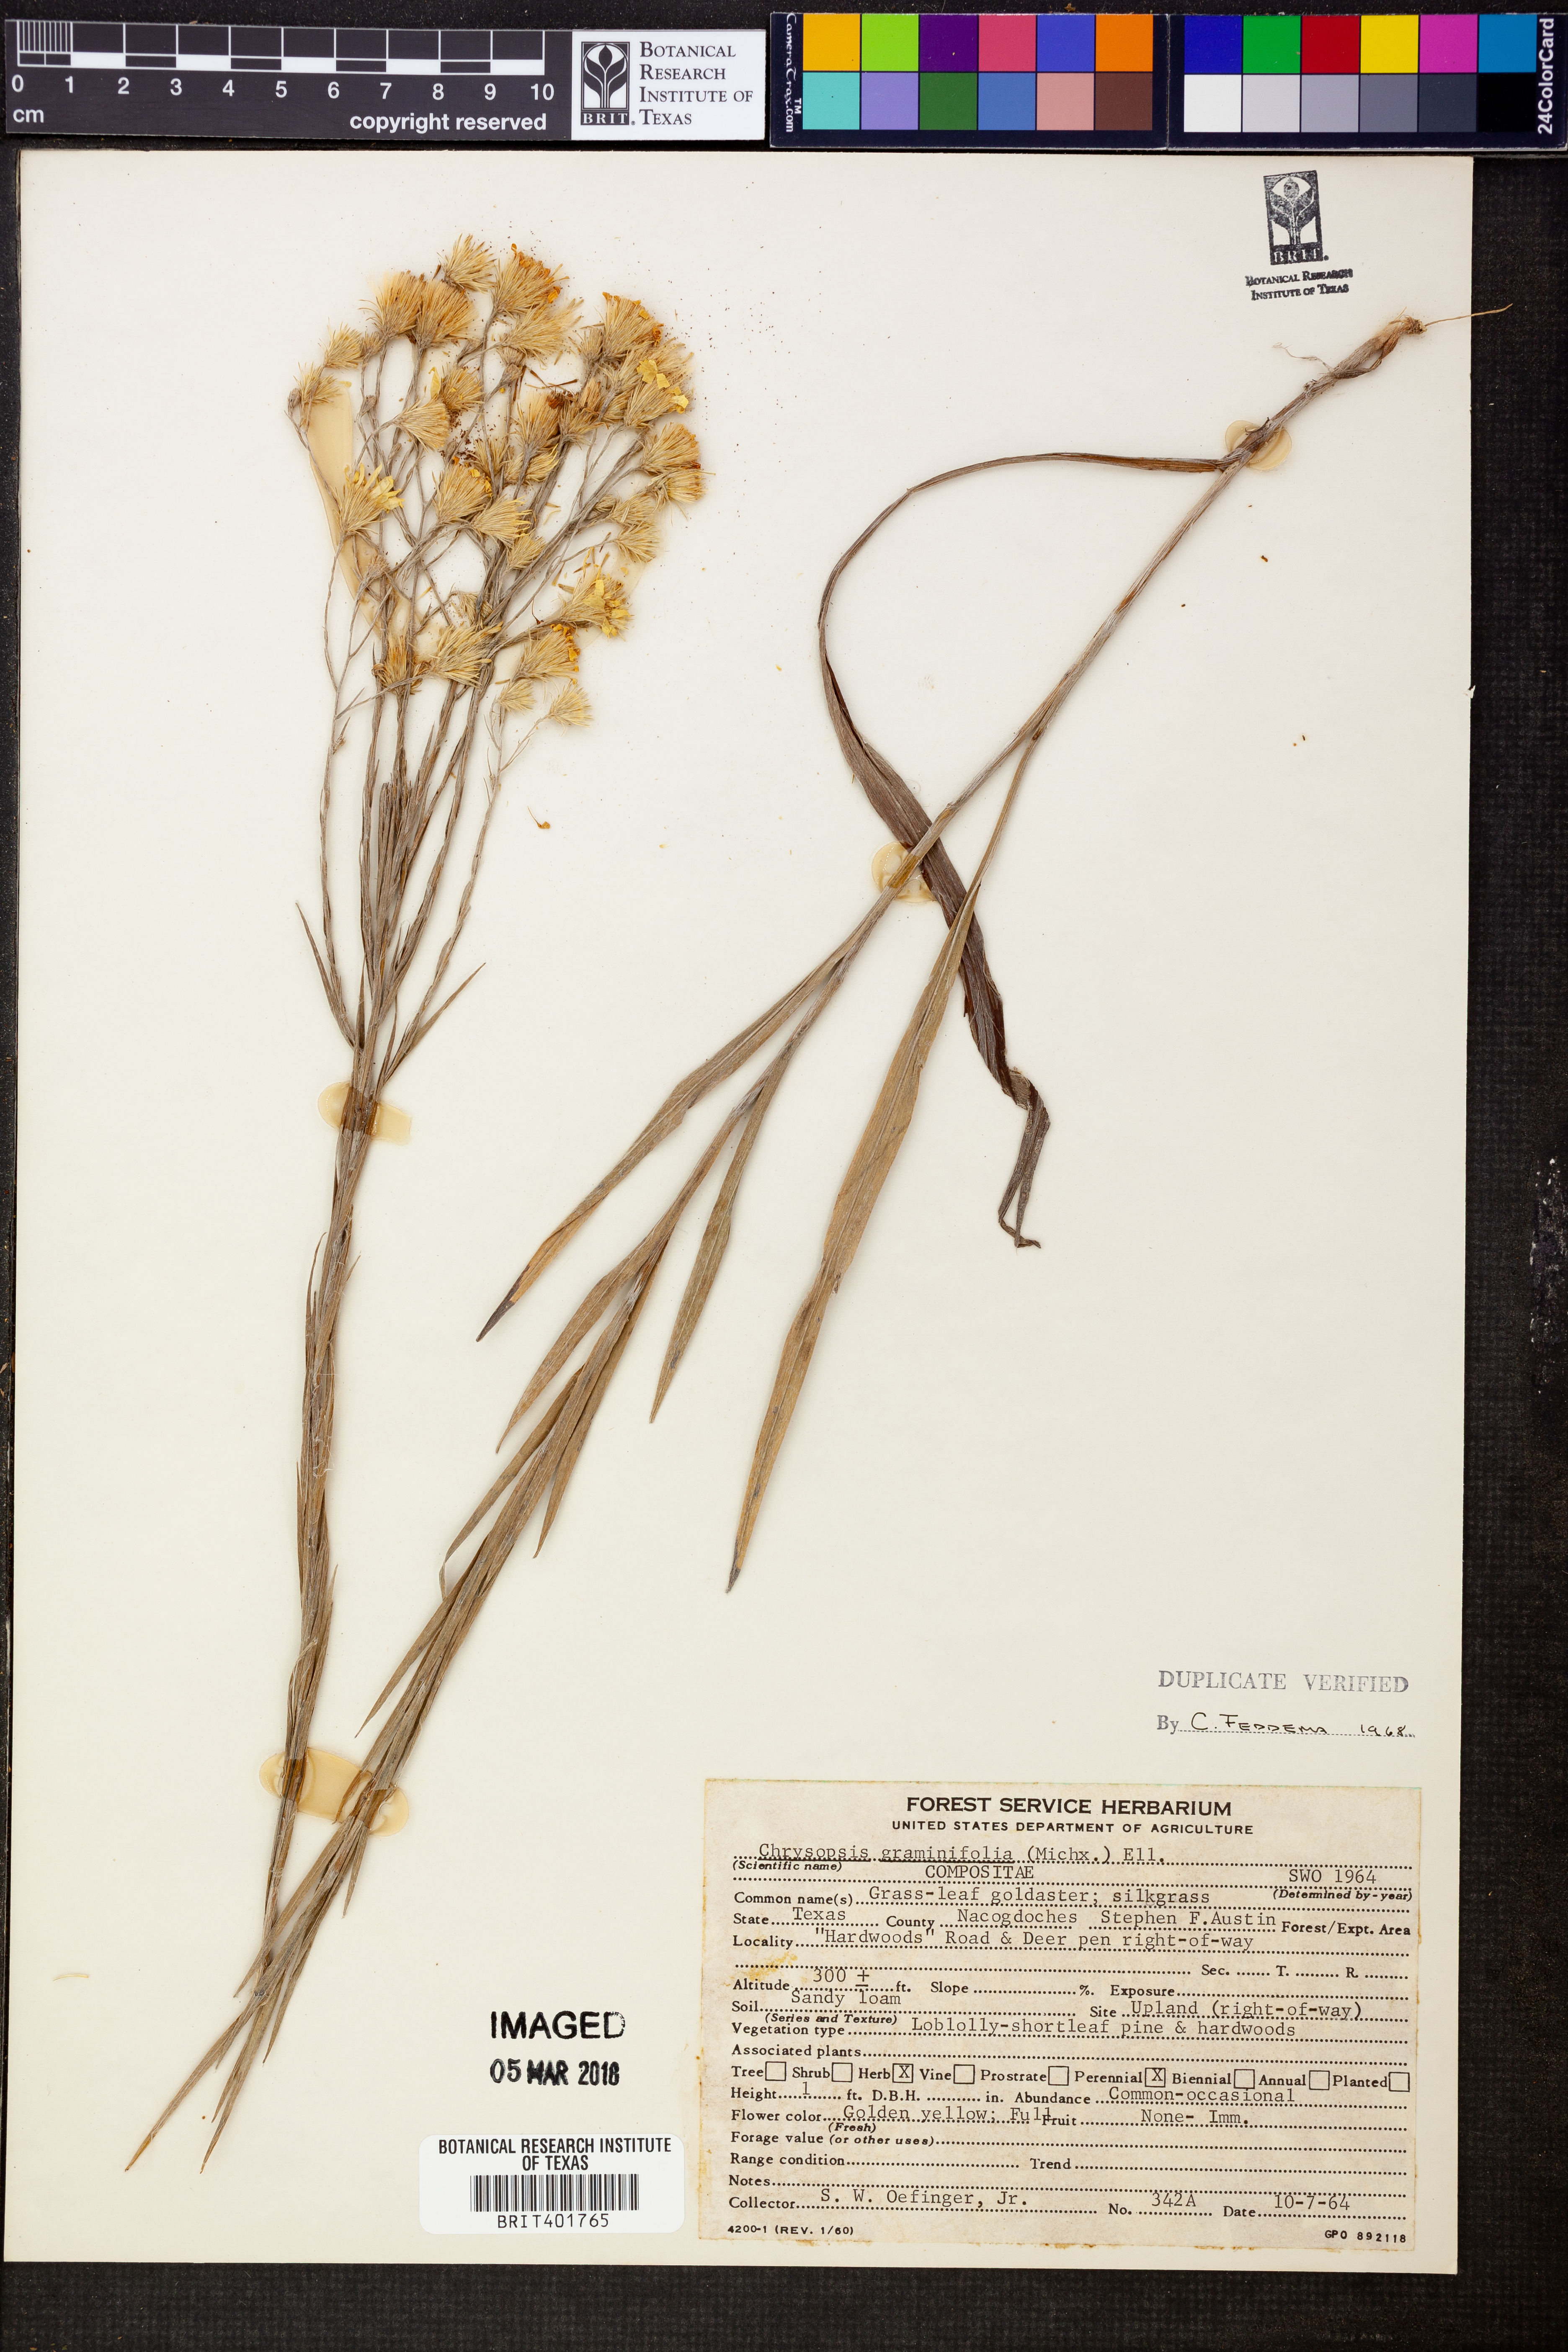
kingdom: Plantae
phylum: Tracheophyta
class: Magnoliopsida
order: Asterales
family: Asteraceae
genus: Pityopsis
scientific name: Pityopsis graminifolia
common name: Grass-leaf golden-aster
